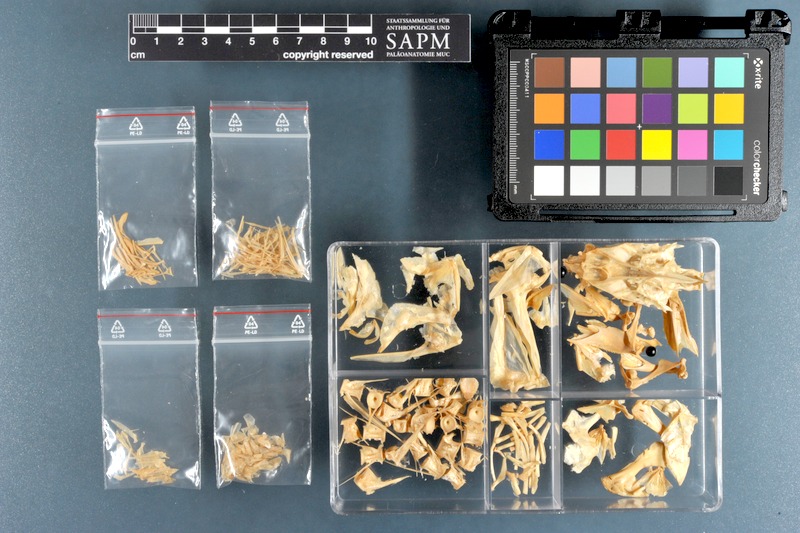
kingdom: Animalia
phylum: Chordata
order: Perciformes
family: Sciaenidae
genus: Otolithes
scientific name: Otolithes ruber
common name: Croaker
